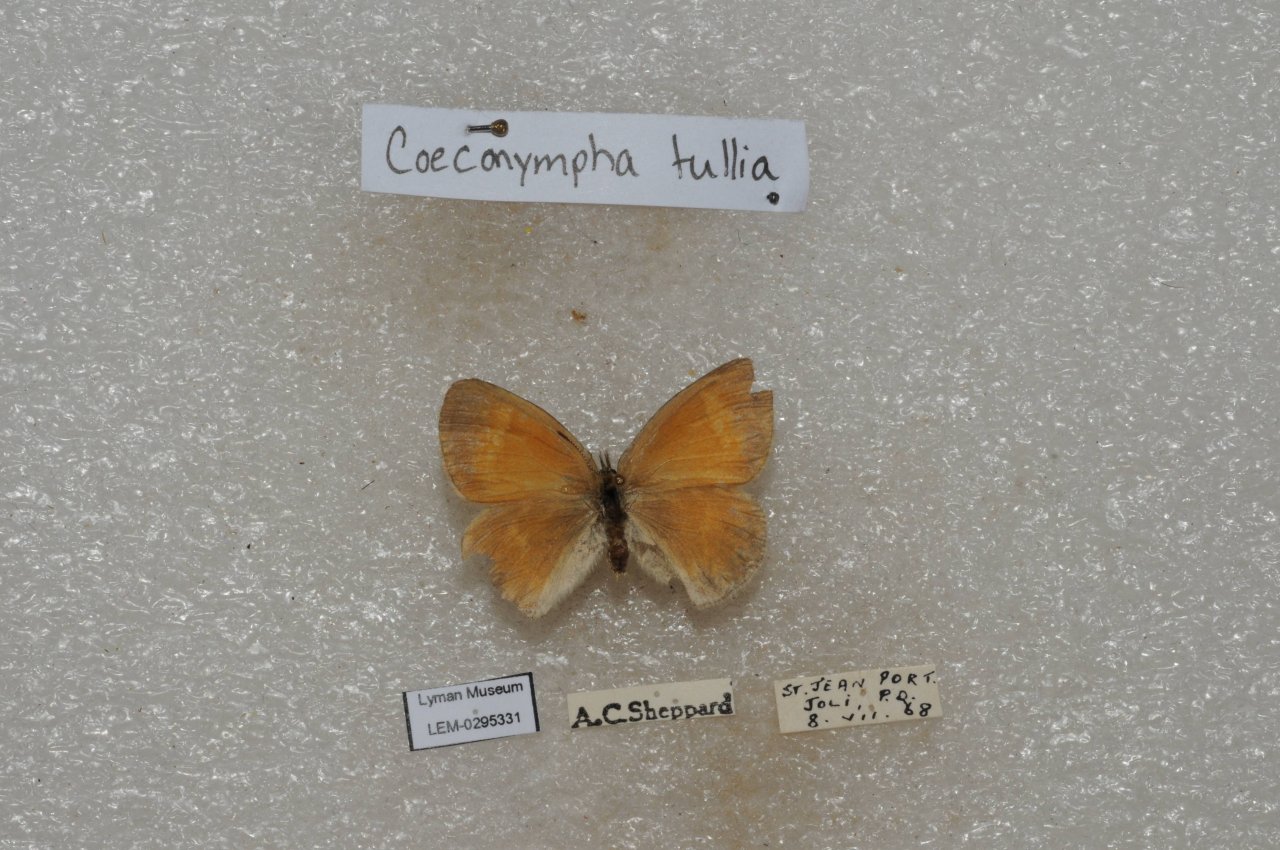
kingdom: Animalia
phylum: Arthropoda
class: Insecta
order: Lepidoptera
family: Nymphalidae
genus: Coenonympha
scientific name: Coenonympha tullia
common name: Large Heath
